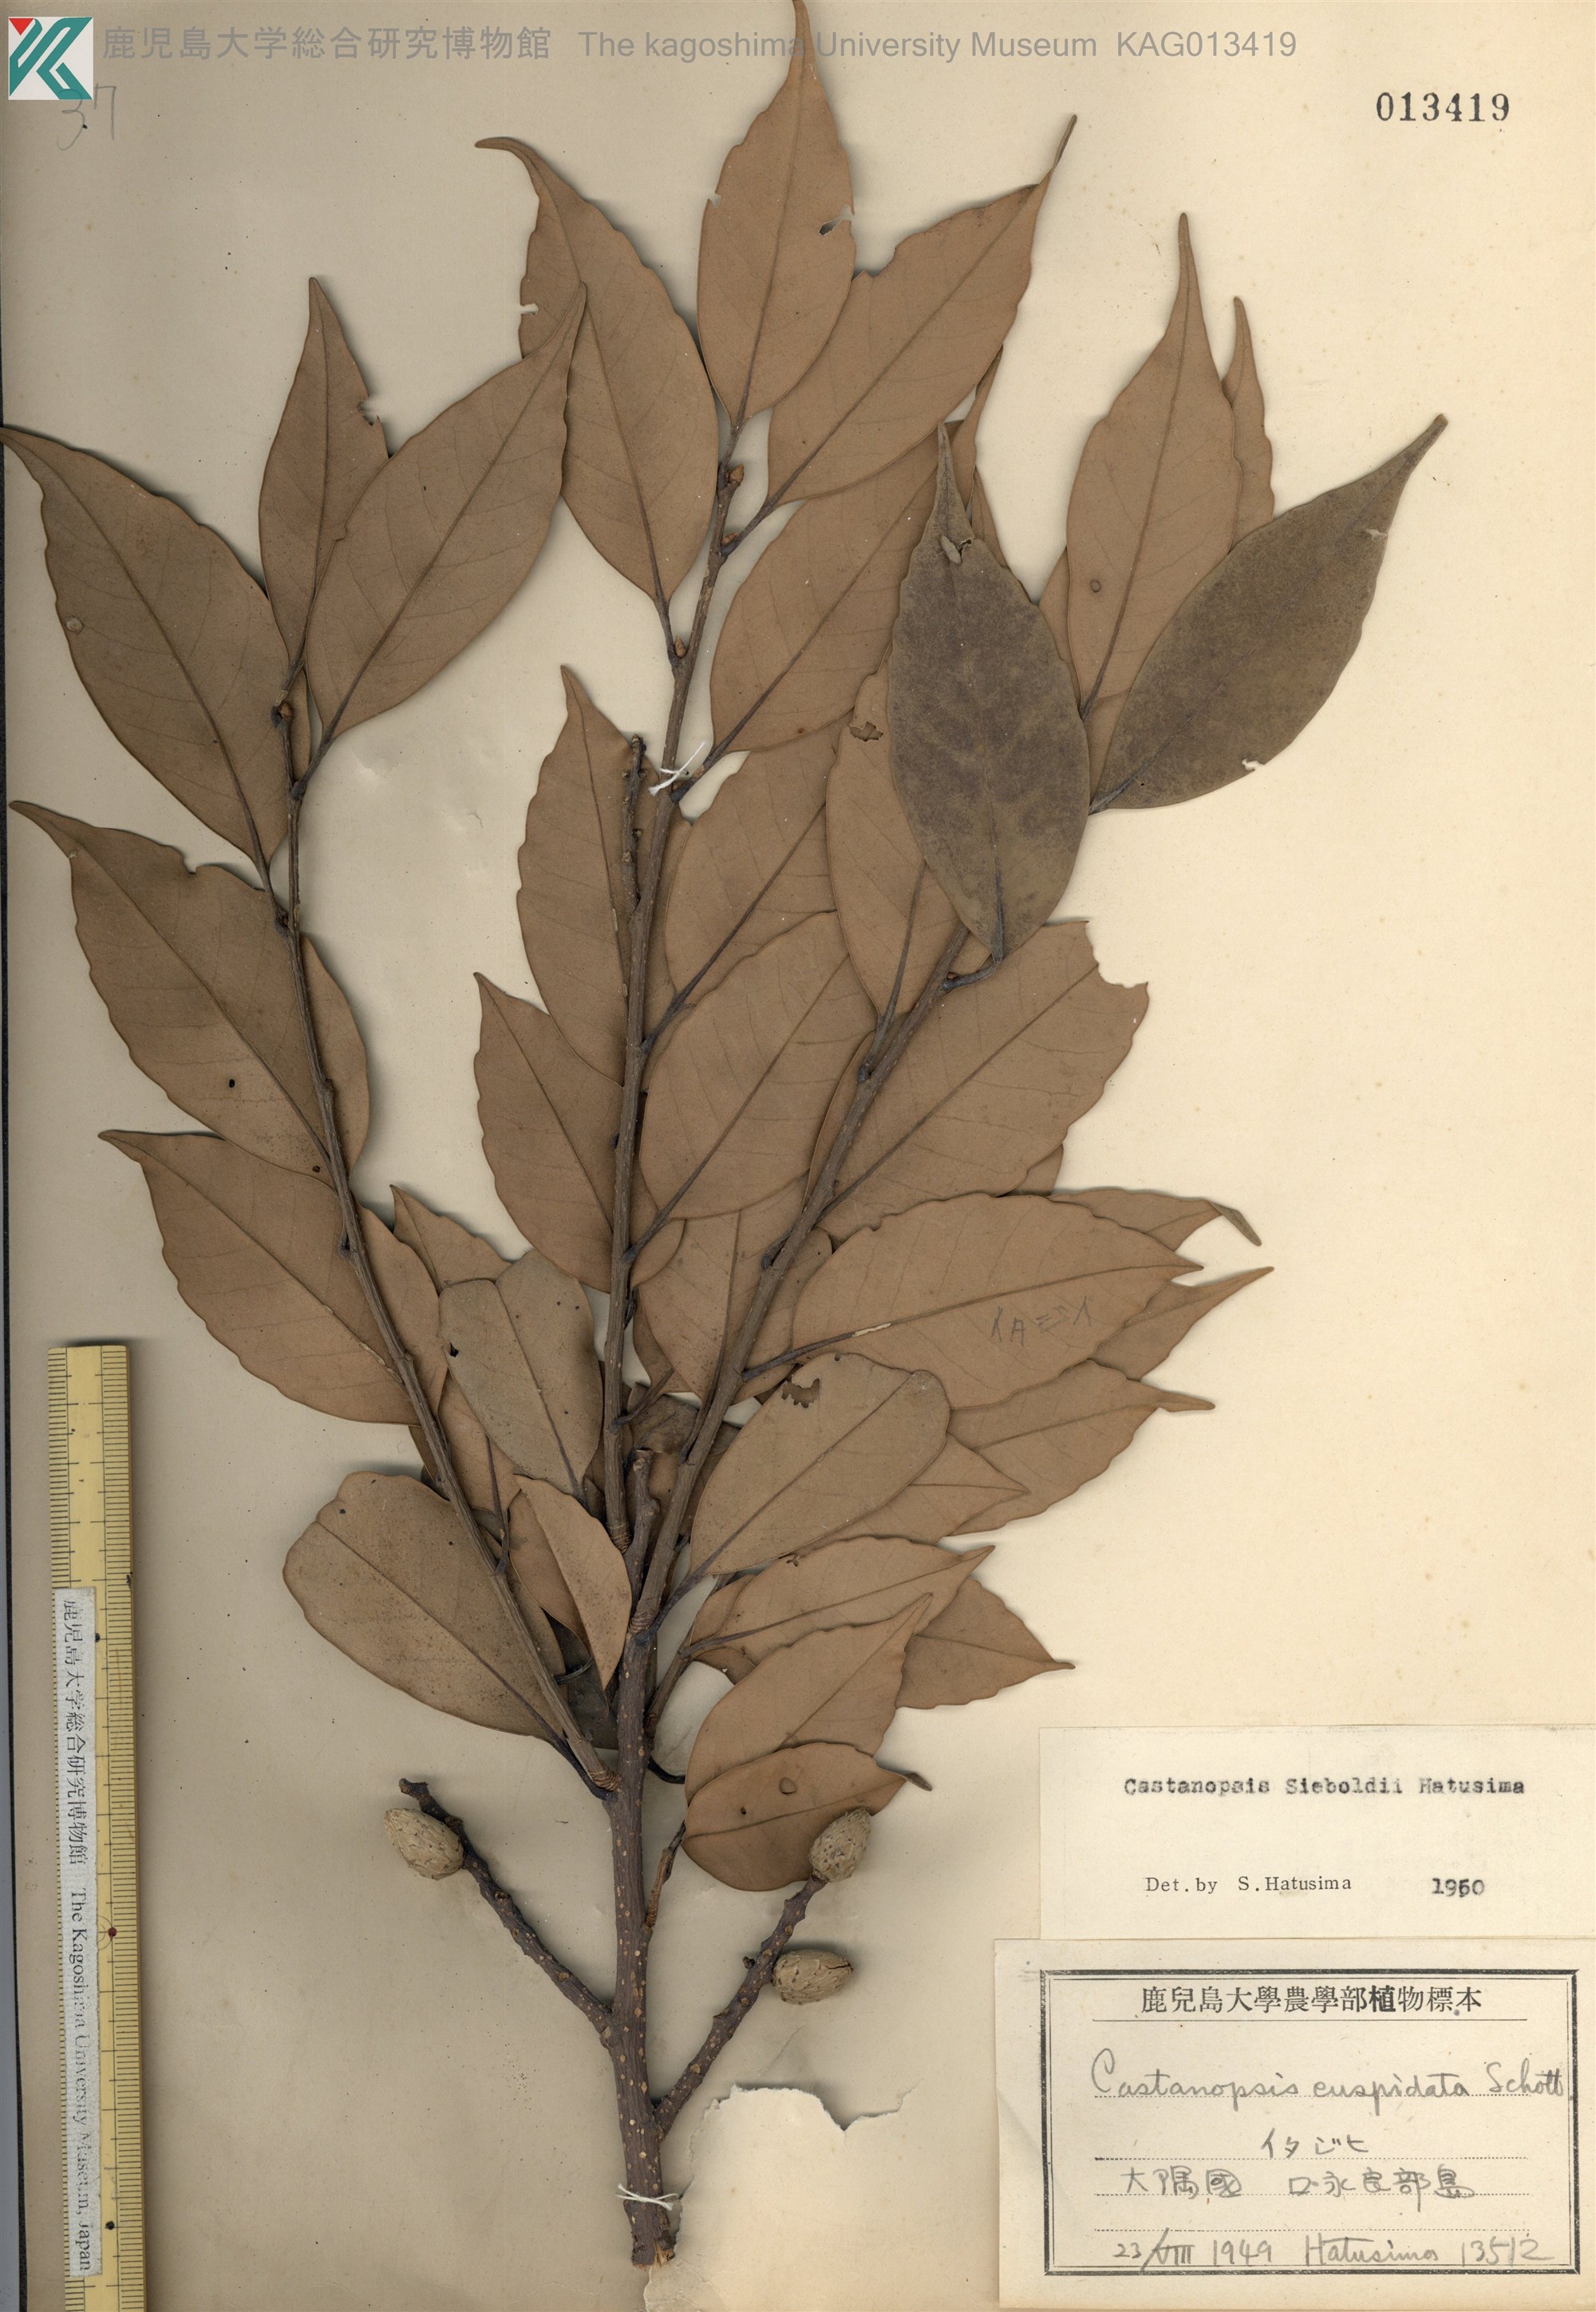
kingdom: Plantae
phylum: Tracheophyta
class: Magnoliopsida
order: Fagales
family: Fagaceae
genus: Castanopsis
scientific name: Castanopsis sieboldii
